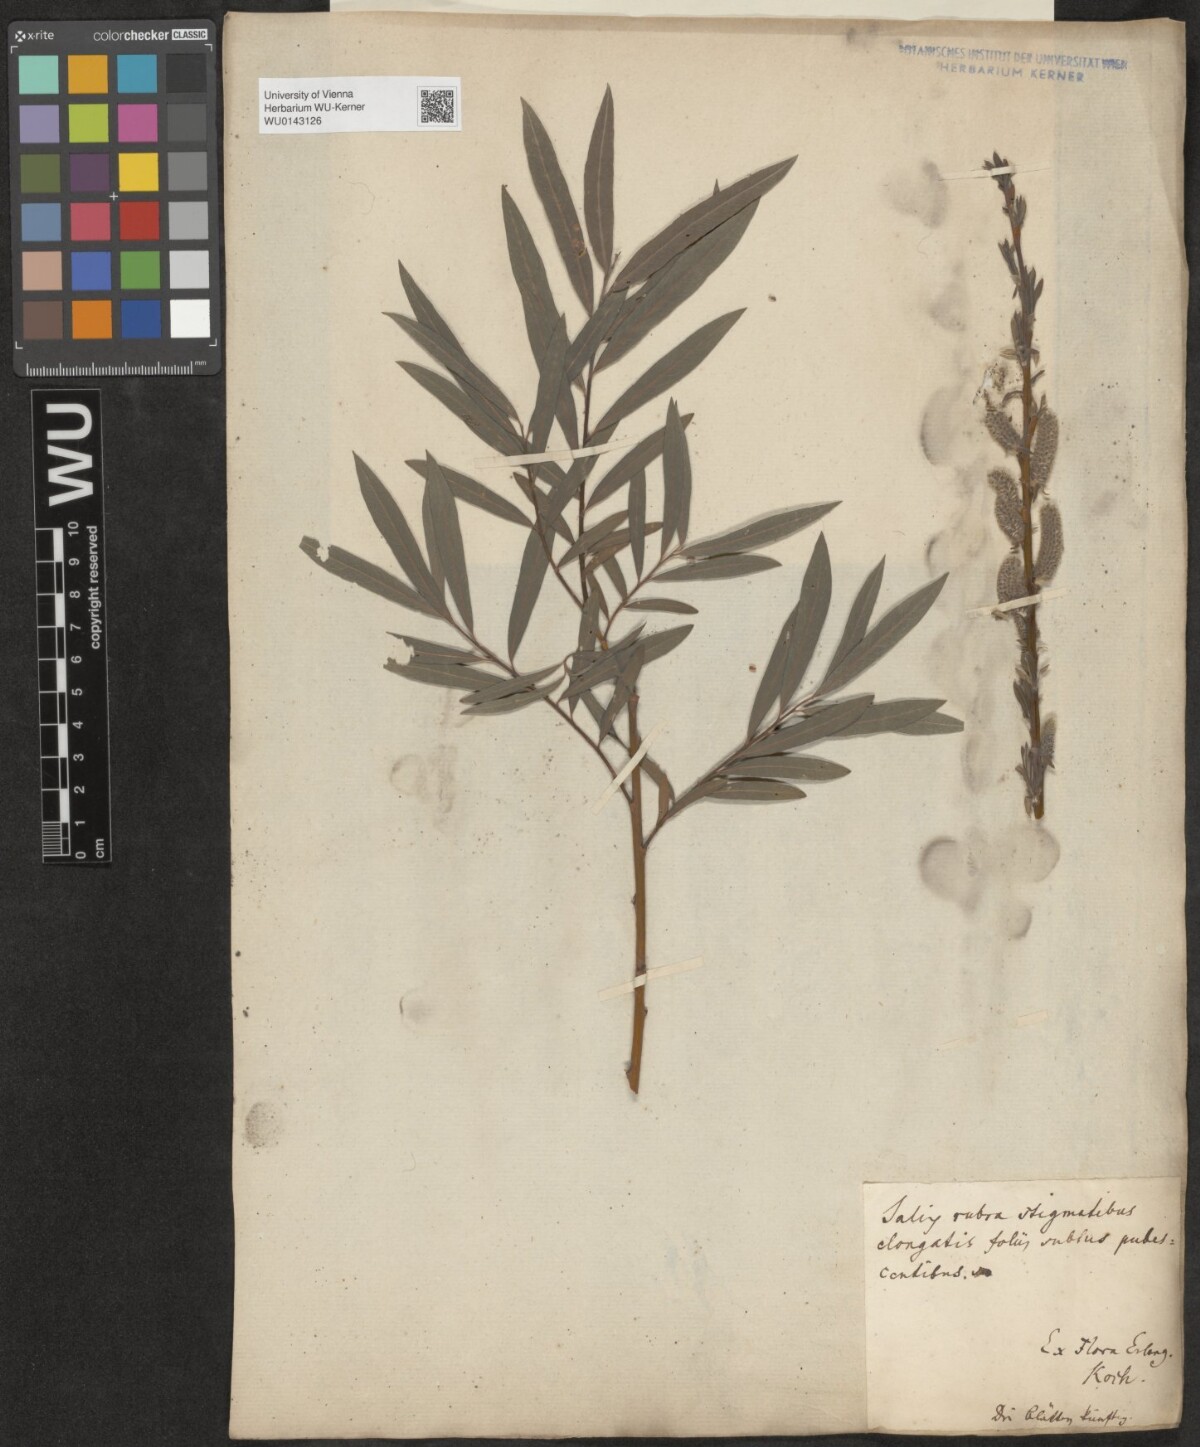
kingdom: Plantae
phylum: Tracheophyta
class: Magnoliopsida
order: Malpighiales
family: Salicaceae
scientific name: Salicaceae
